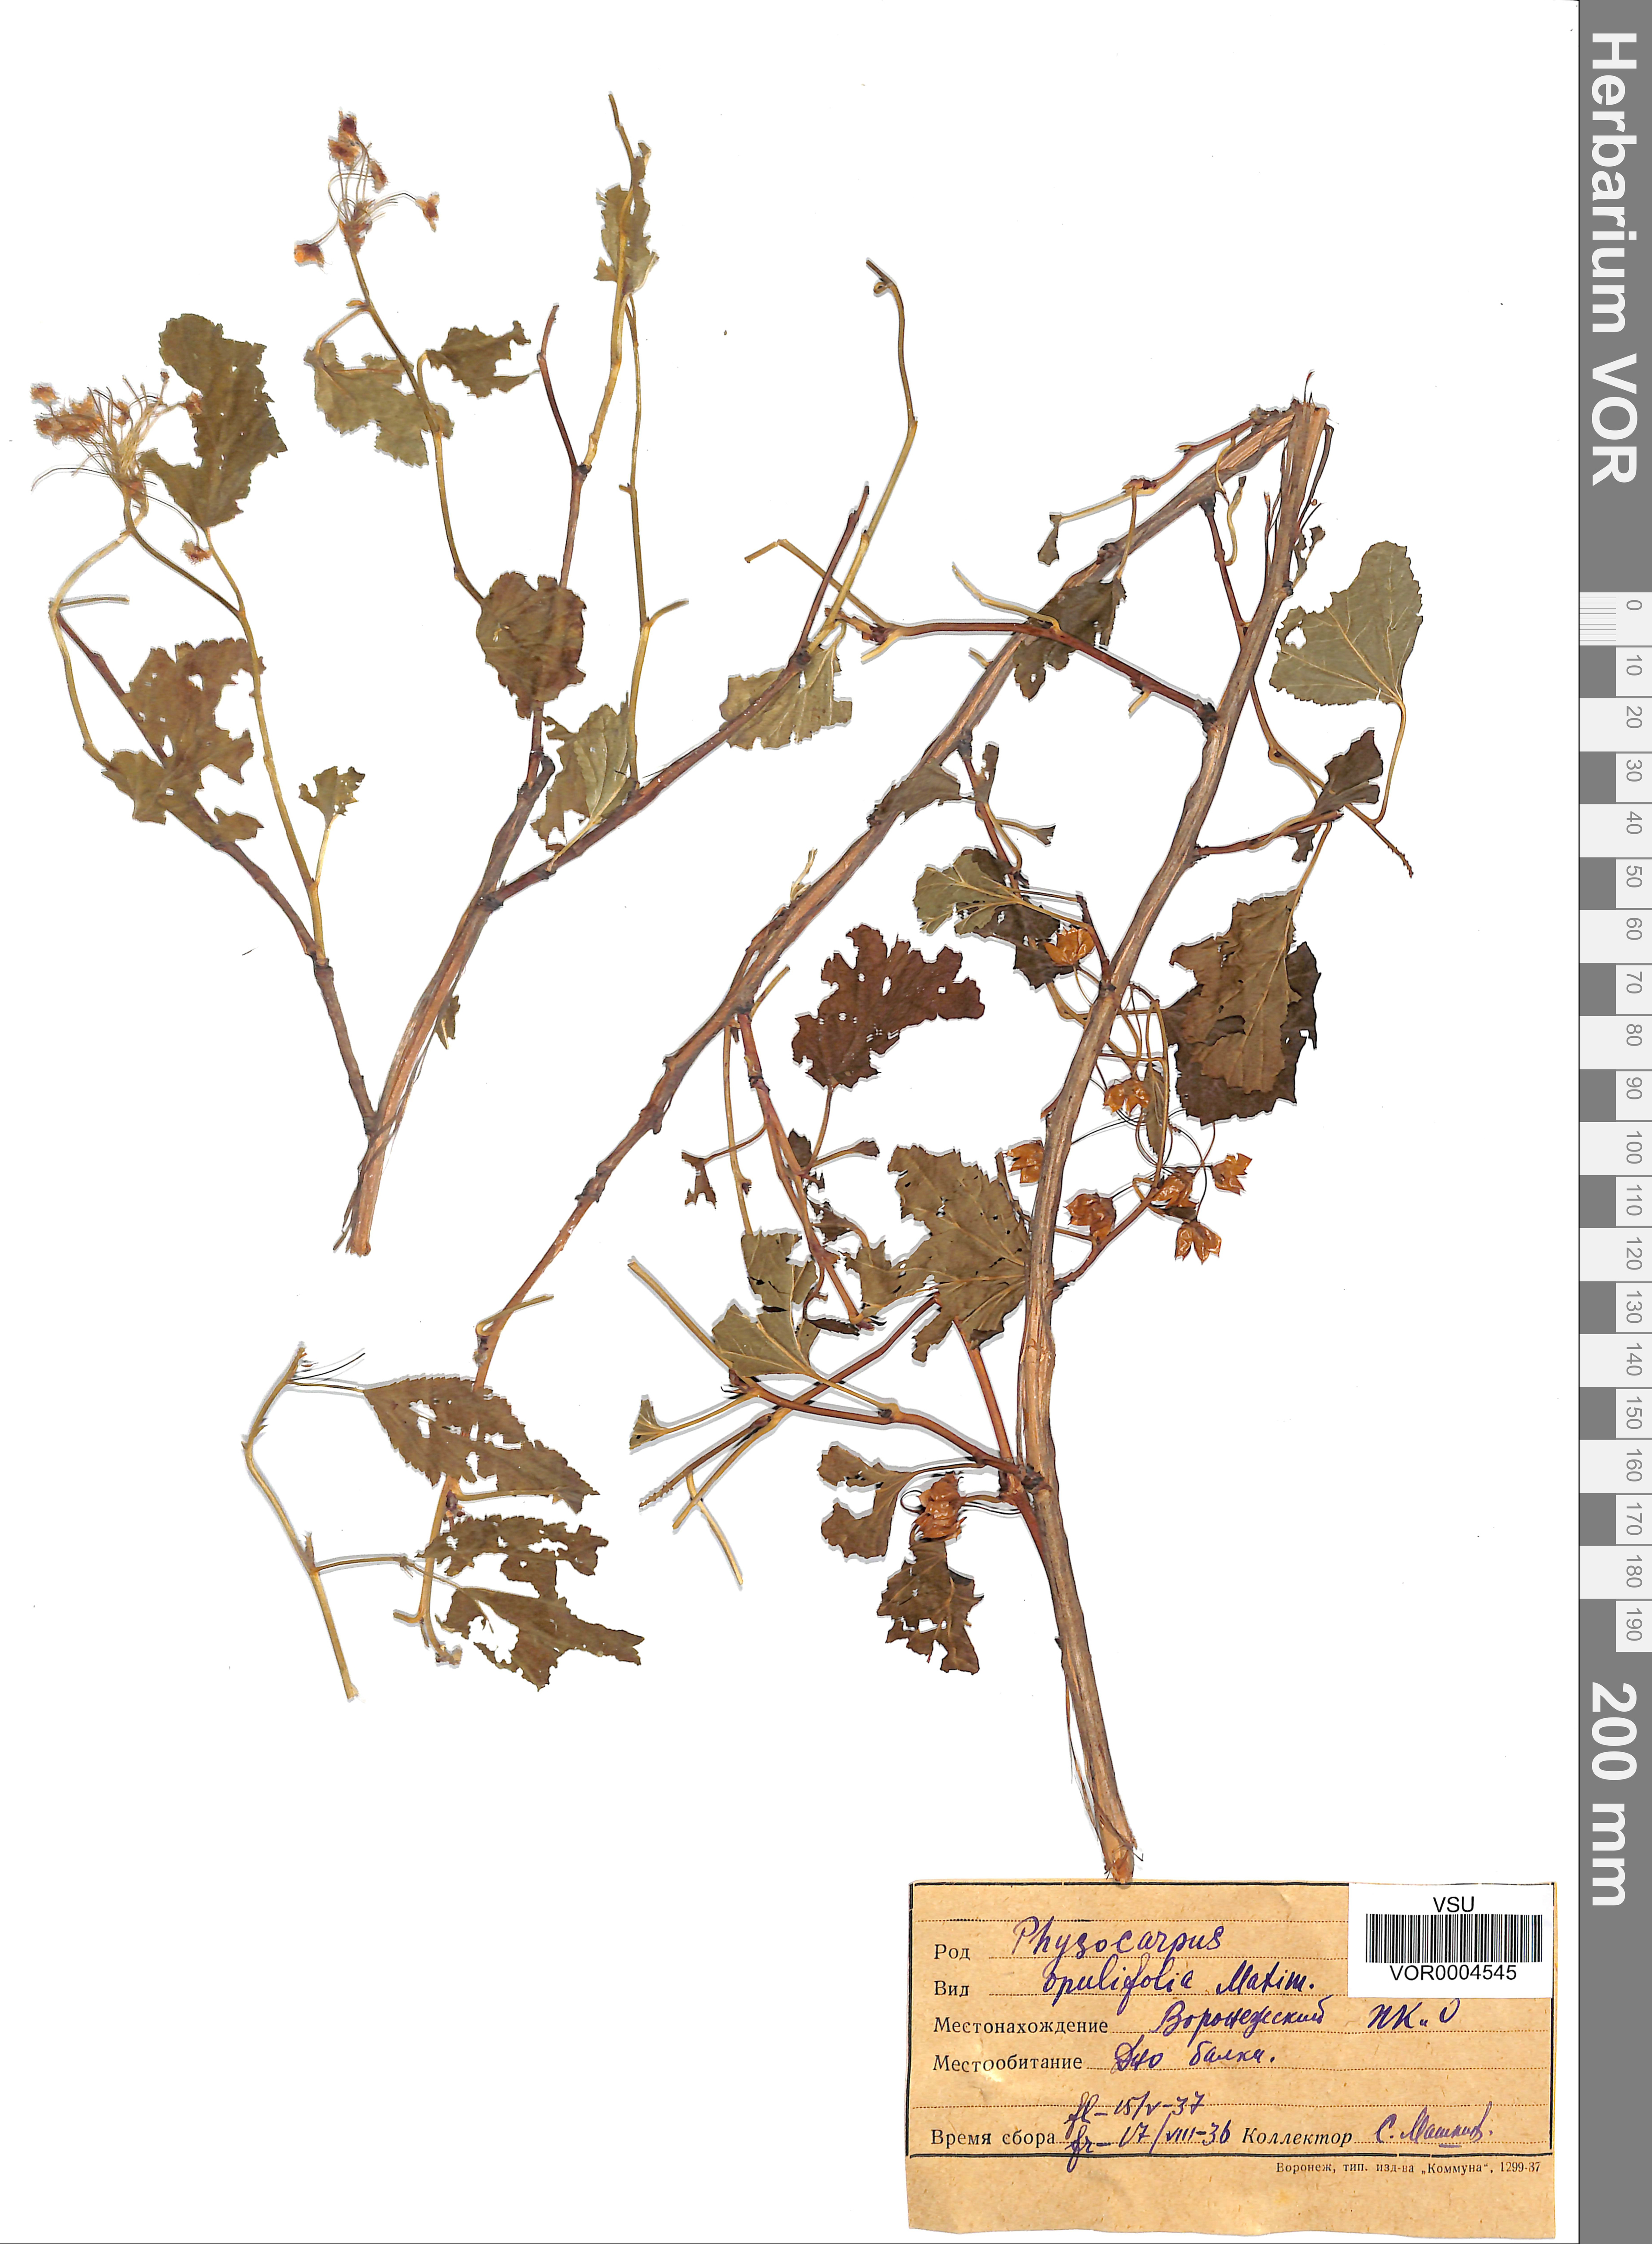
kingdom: Plantae
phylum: Tracheophyta
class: Magnoliopsida
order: Rosales
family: Rosaceae
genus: Physocarpus
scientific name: Physocarpus opulifolius
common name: Ninebark
